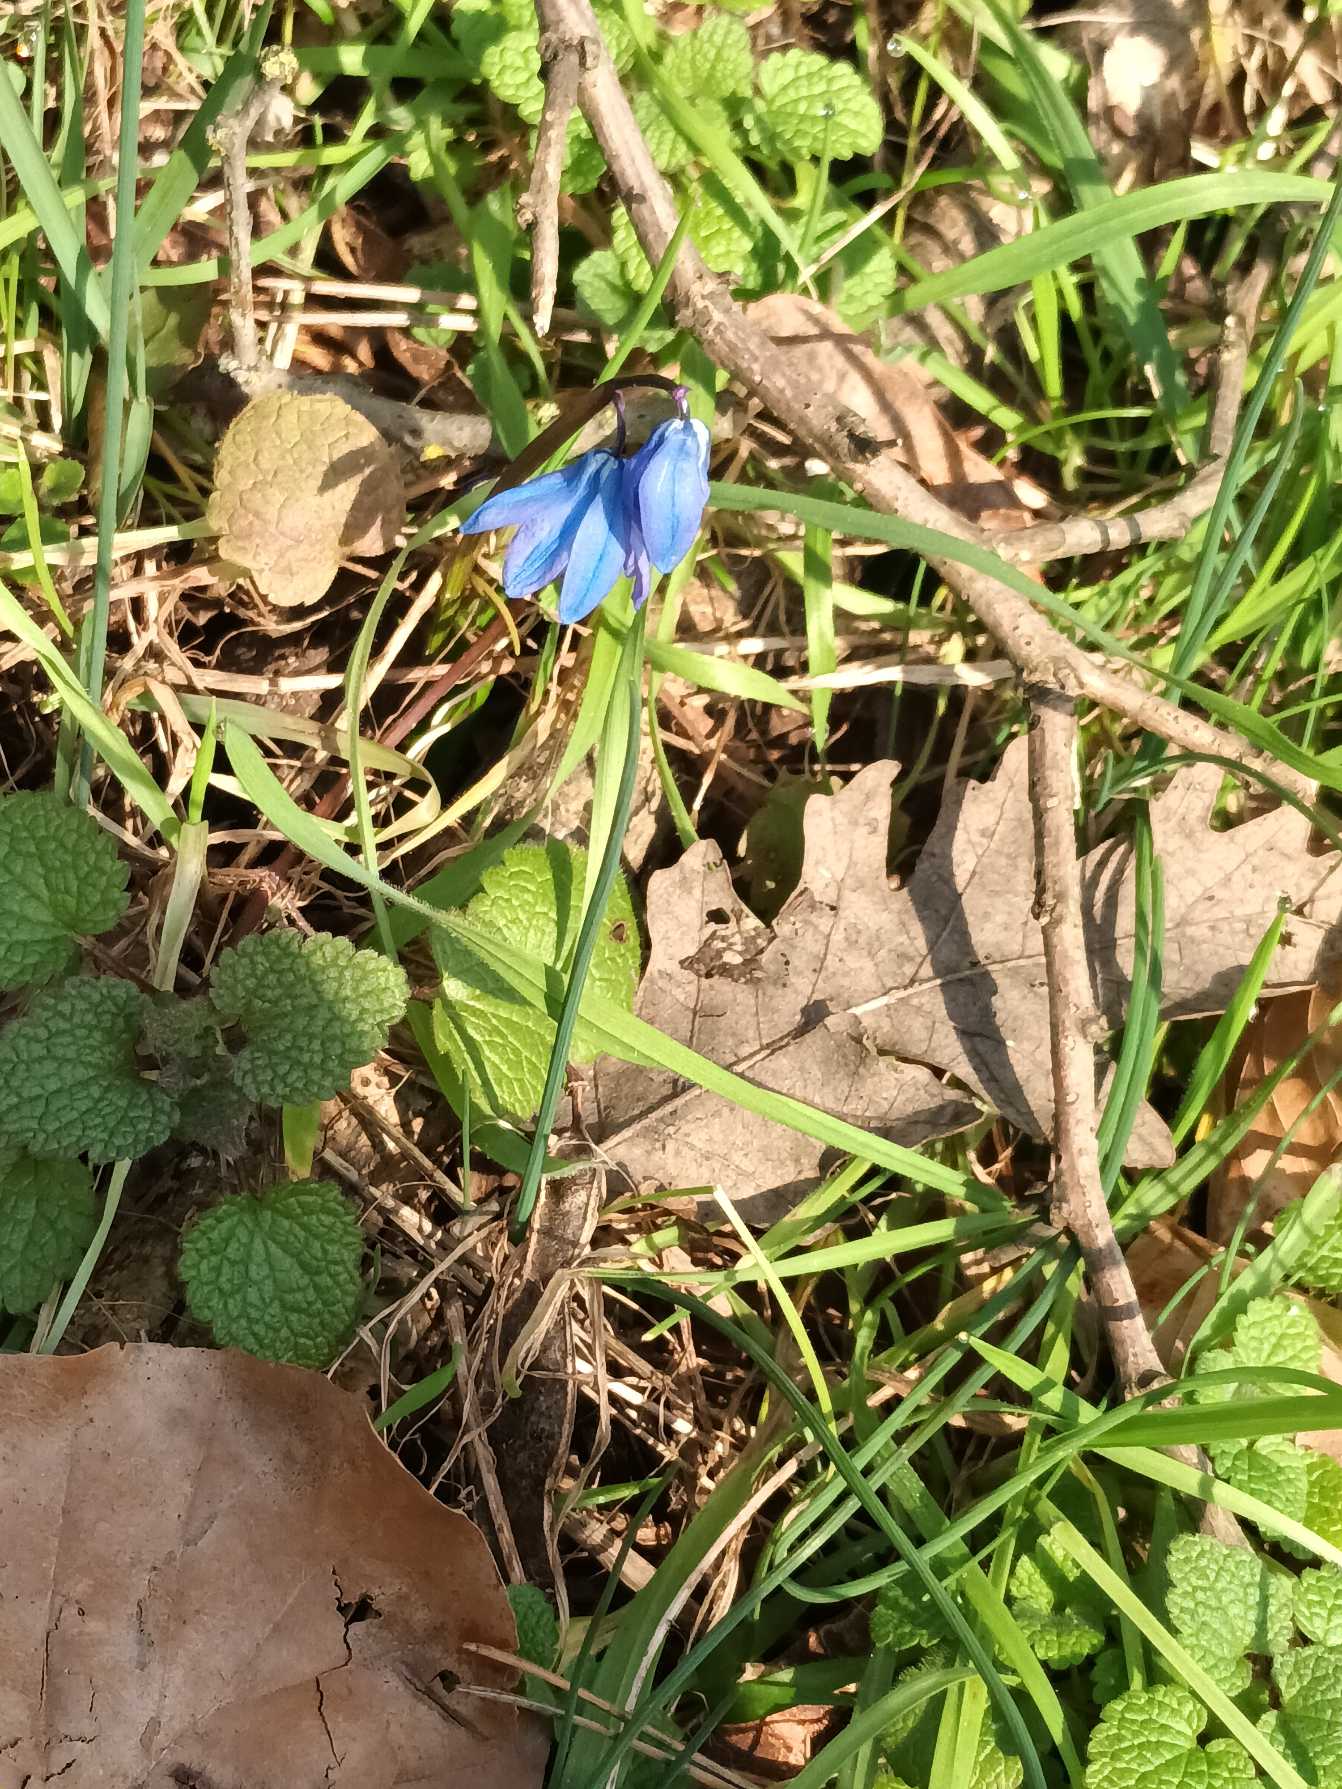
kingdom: Plantae
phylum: Tracheophyta
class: Liliopsida
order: Asparagales
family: Asparagaceae
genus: Scilla
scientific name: Scilla siberica
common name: Russisk skilla
